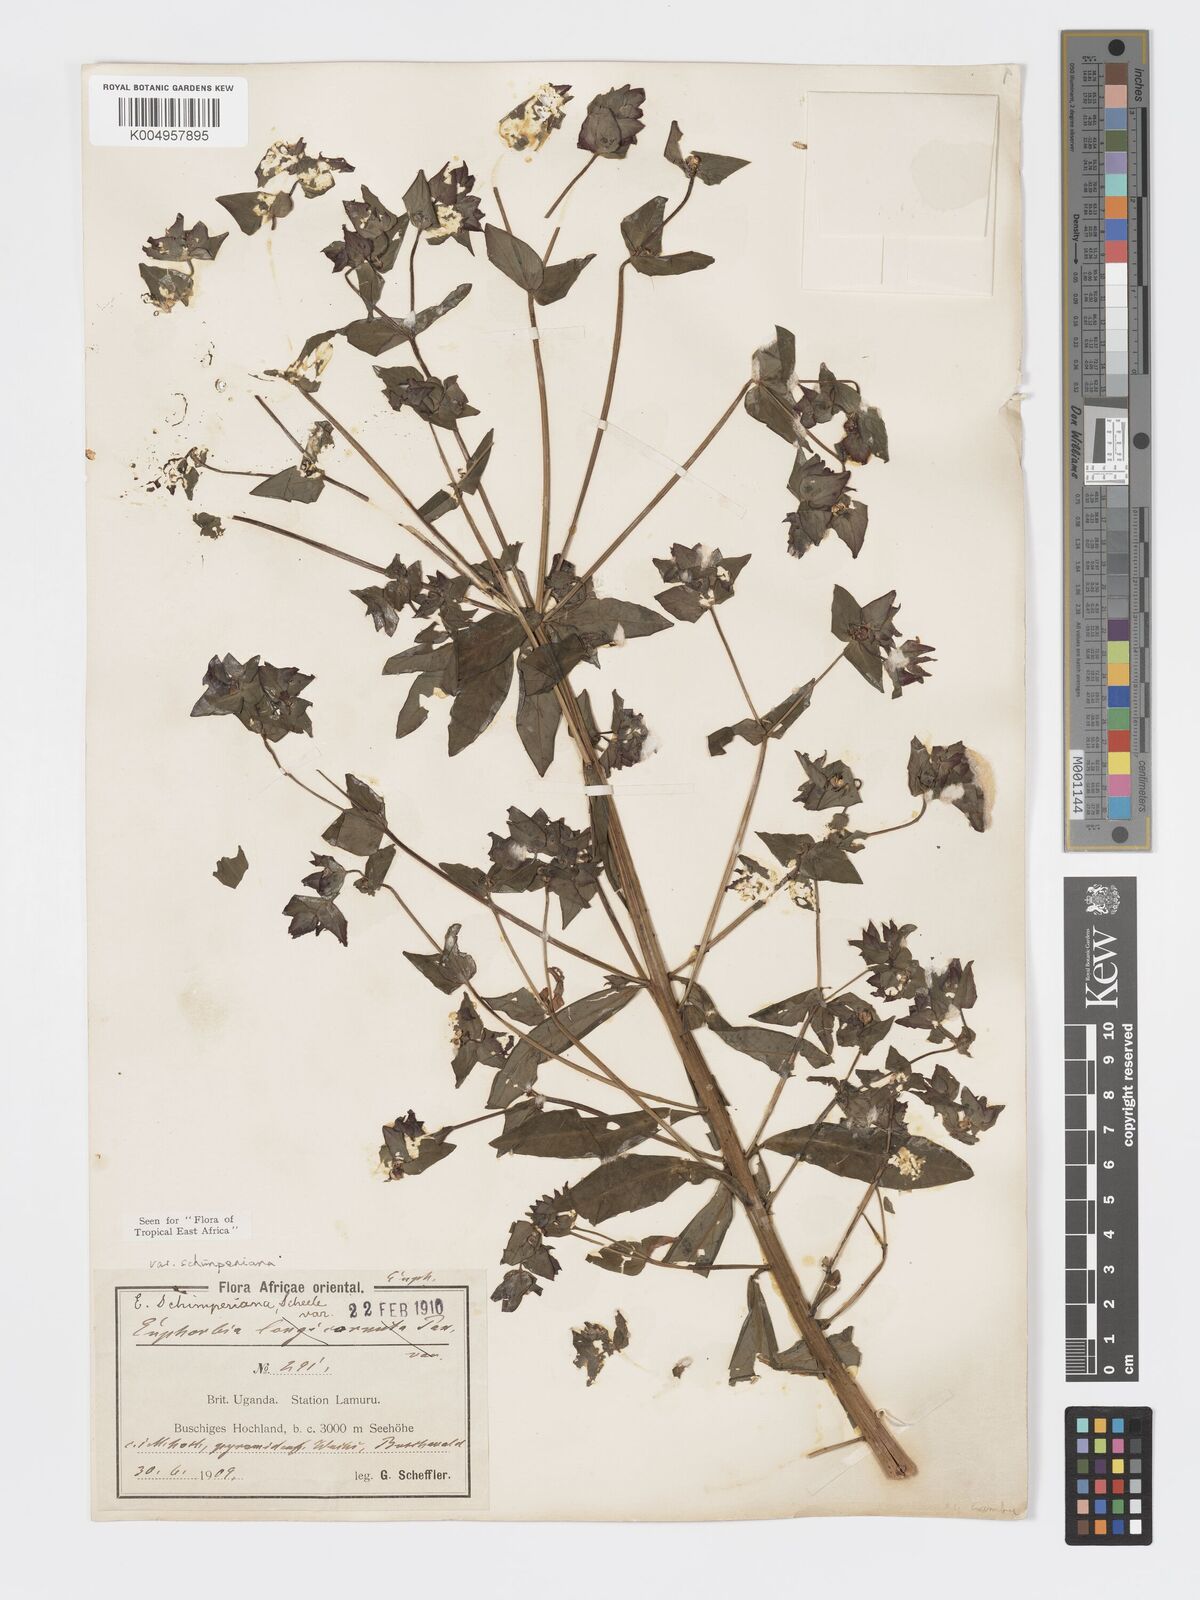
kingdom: Plantae
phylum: Tracheophyta
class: Magnoliopsida
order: Malpighiales
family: Euphorbiaceae
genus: Euphorbia
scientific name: Euphorbia schimperiana
